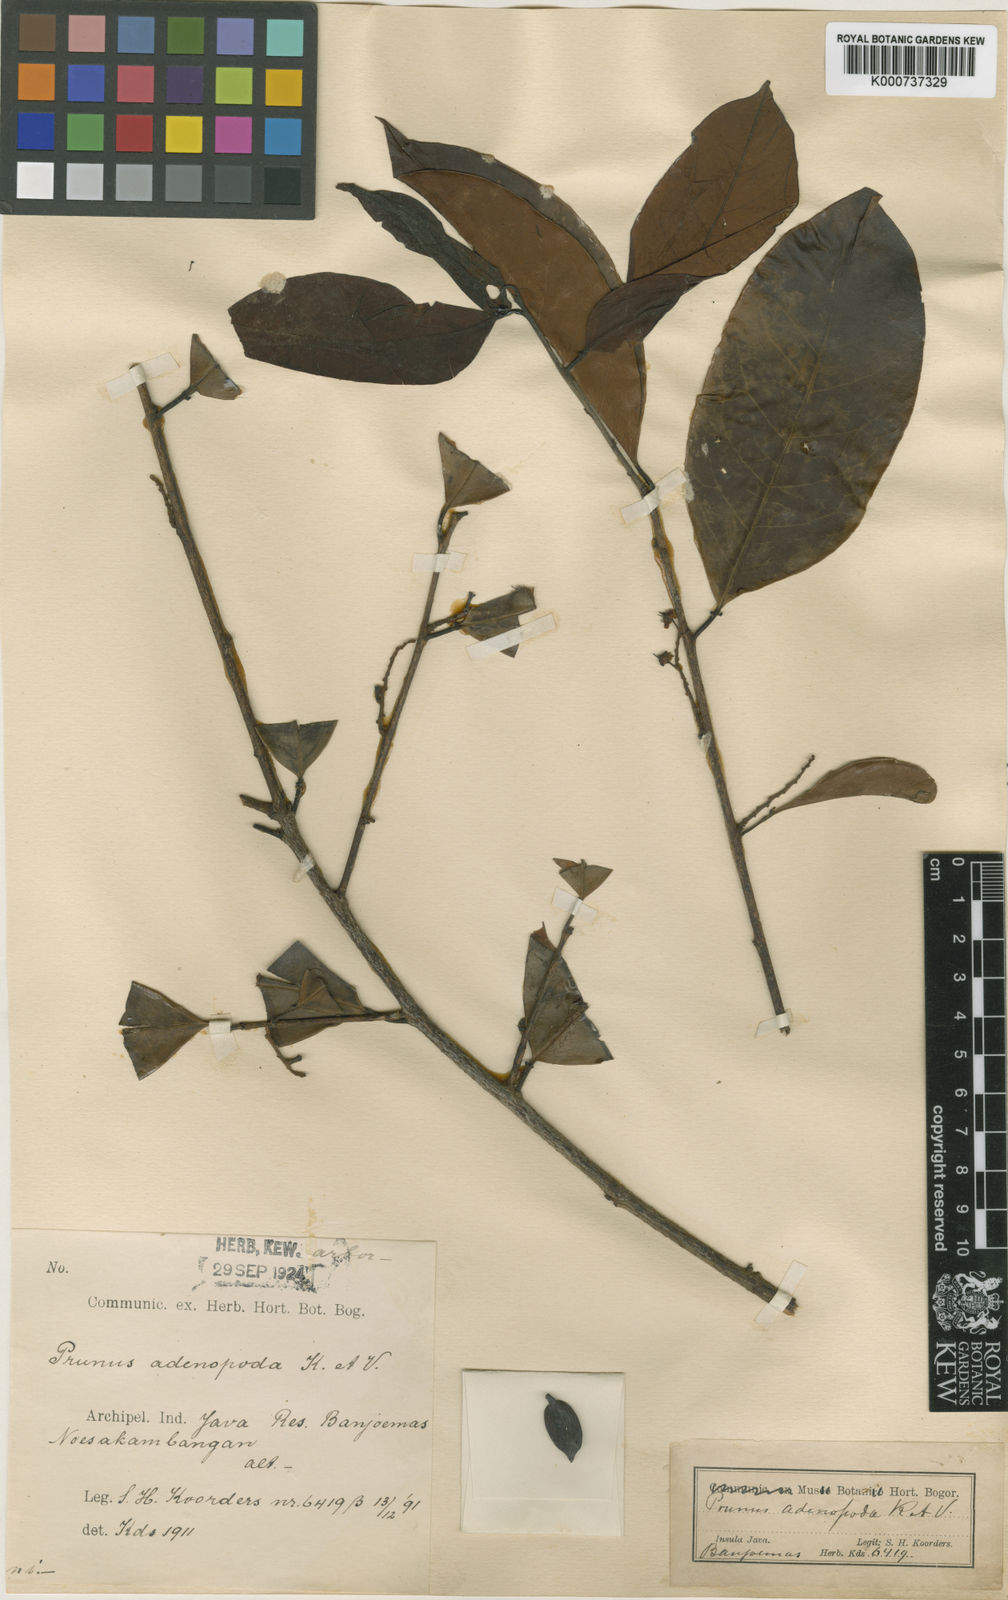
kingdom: Plantae
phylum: Tracheophyta
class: Magnoliopsida
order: Rosales
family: Rosaceae
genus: Prunus
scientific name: Prunus zippeliana
